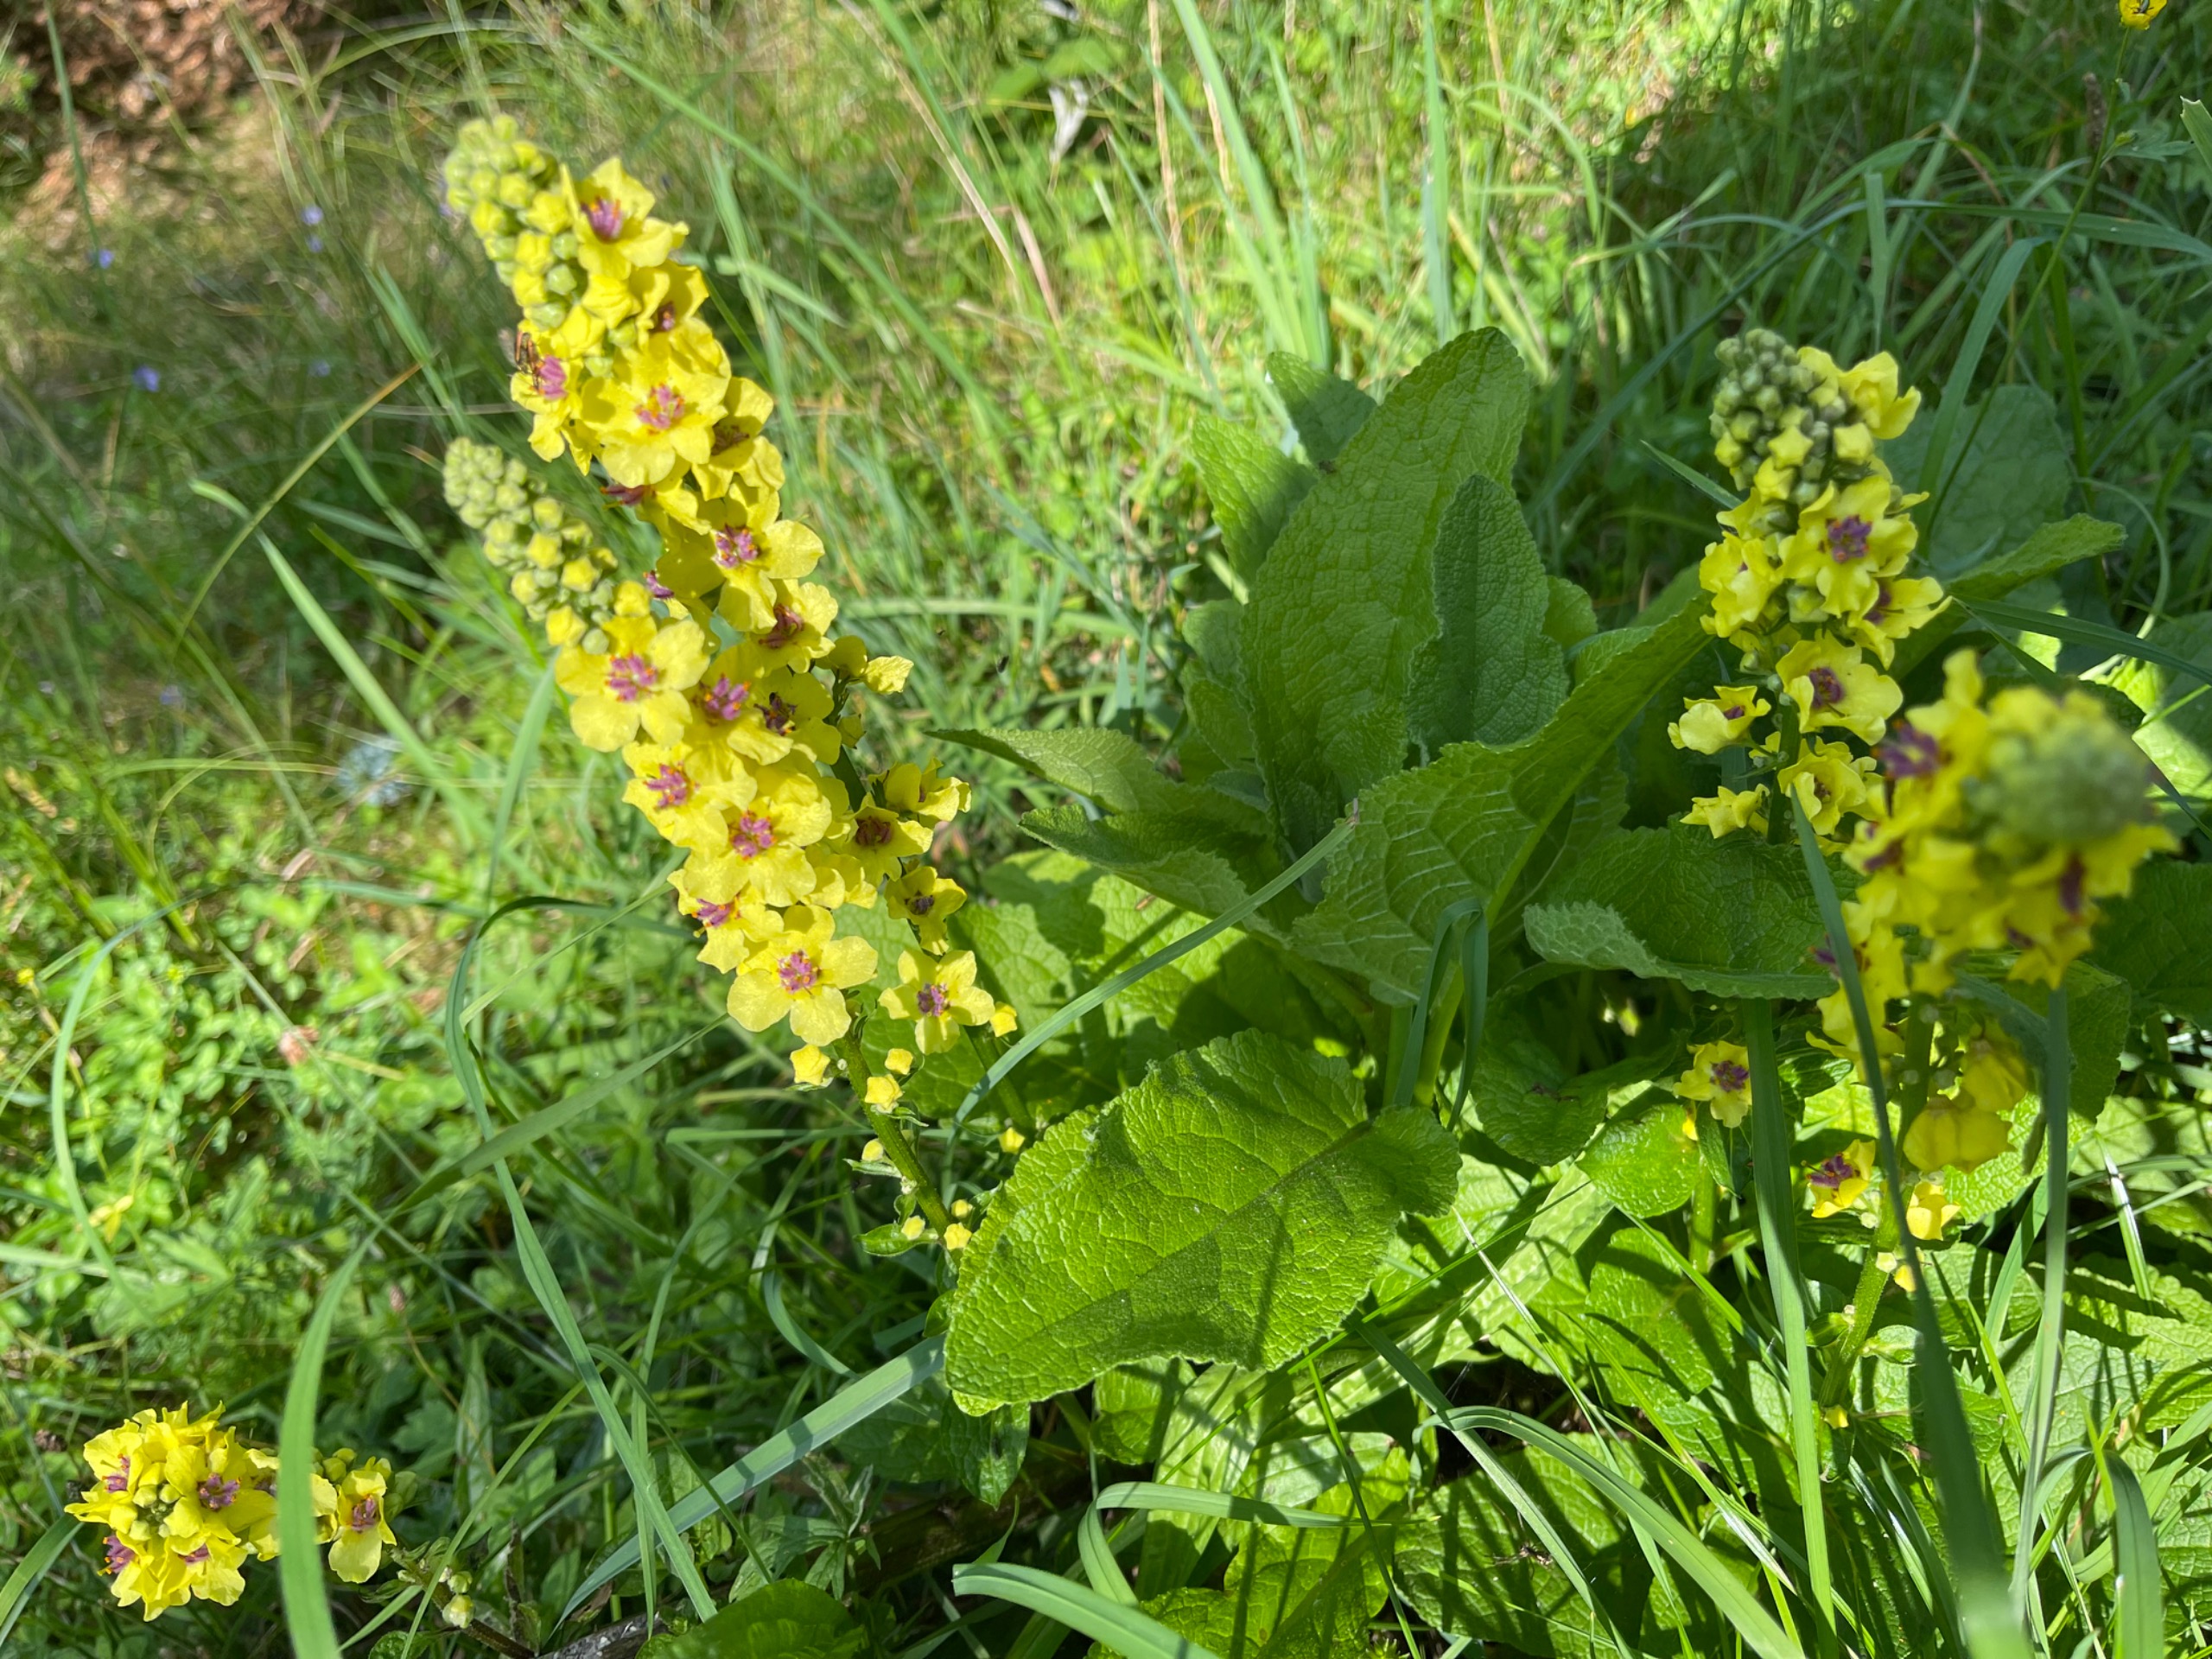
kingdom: Plantae
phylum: Tracheophyta
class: Magnoliopsida
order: Lamiales
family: Scrophulariaceae
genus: Verbascum
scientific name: Verbascum nigrum
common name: Mørk kongelys
